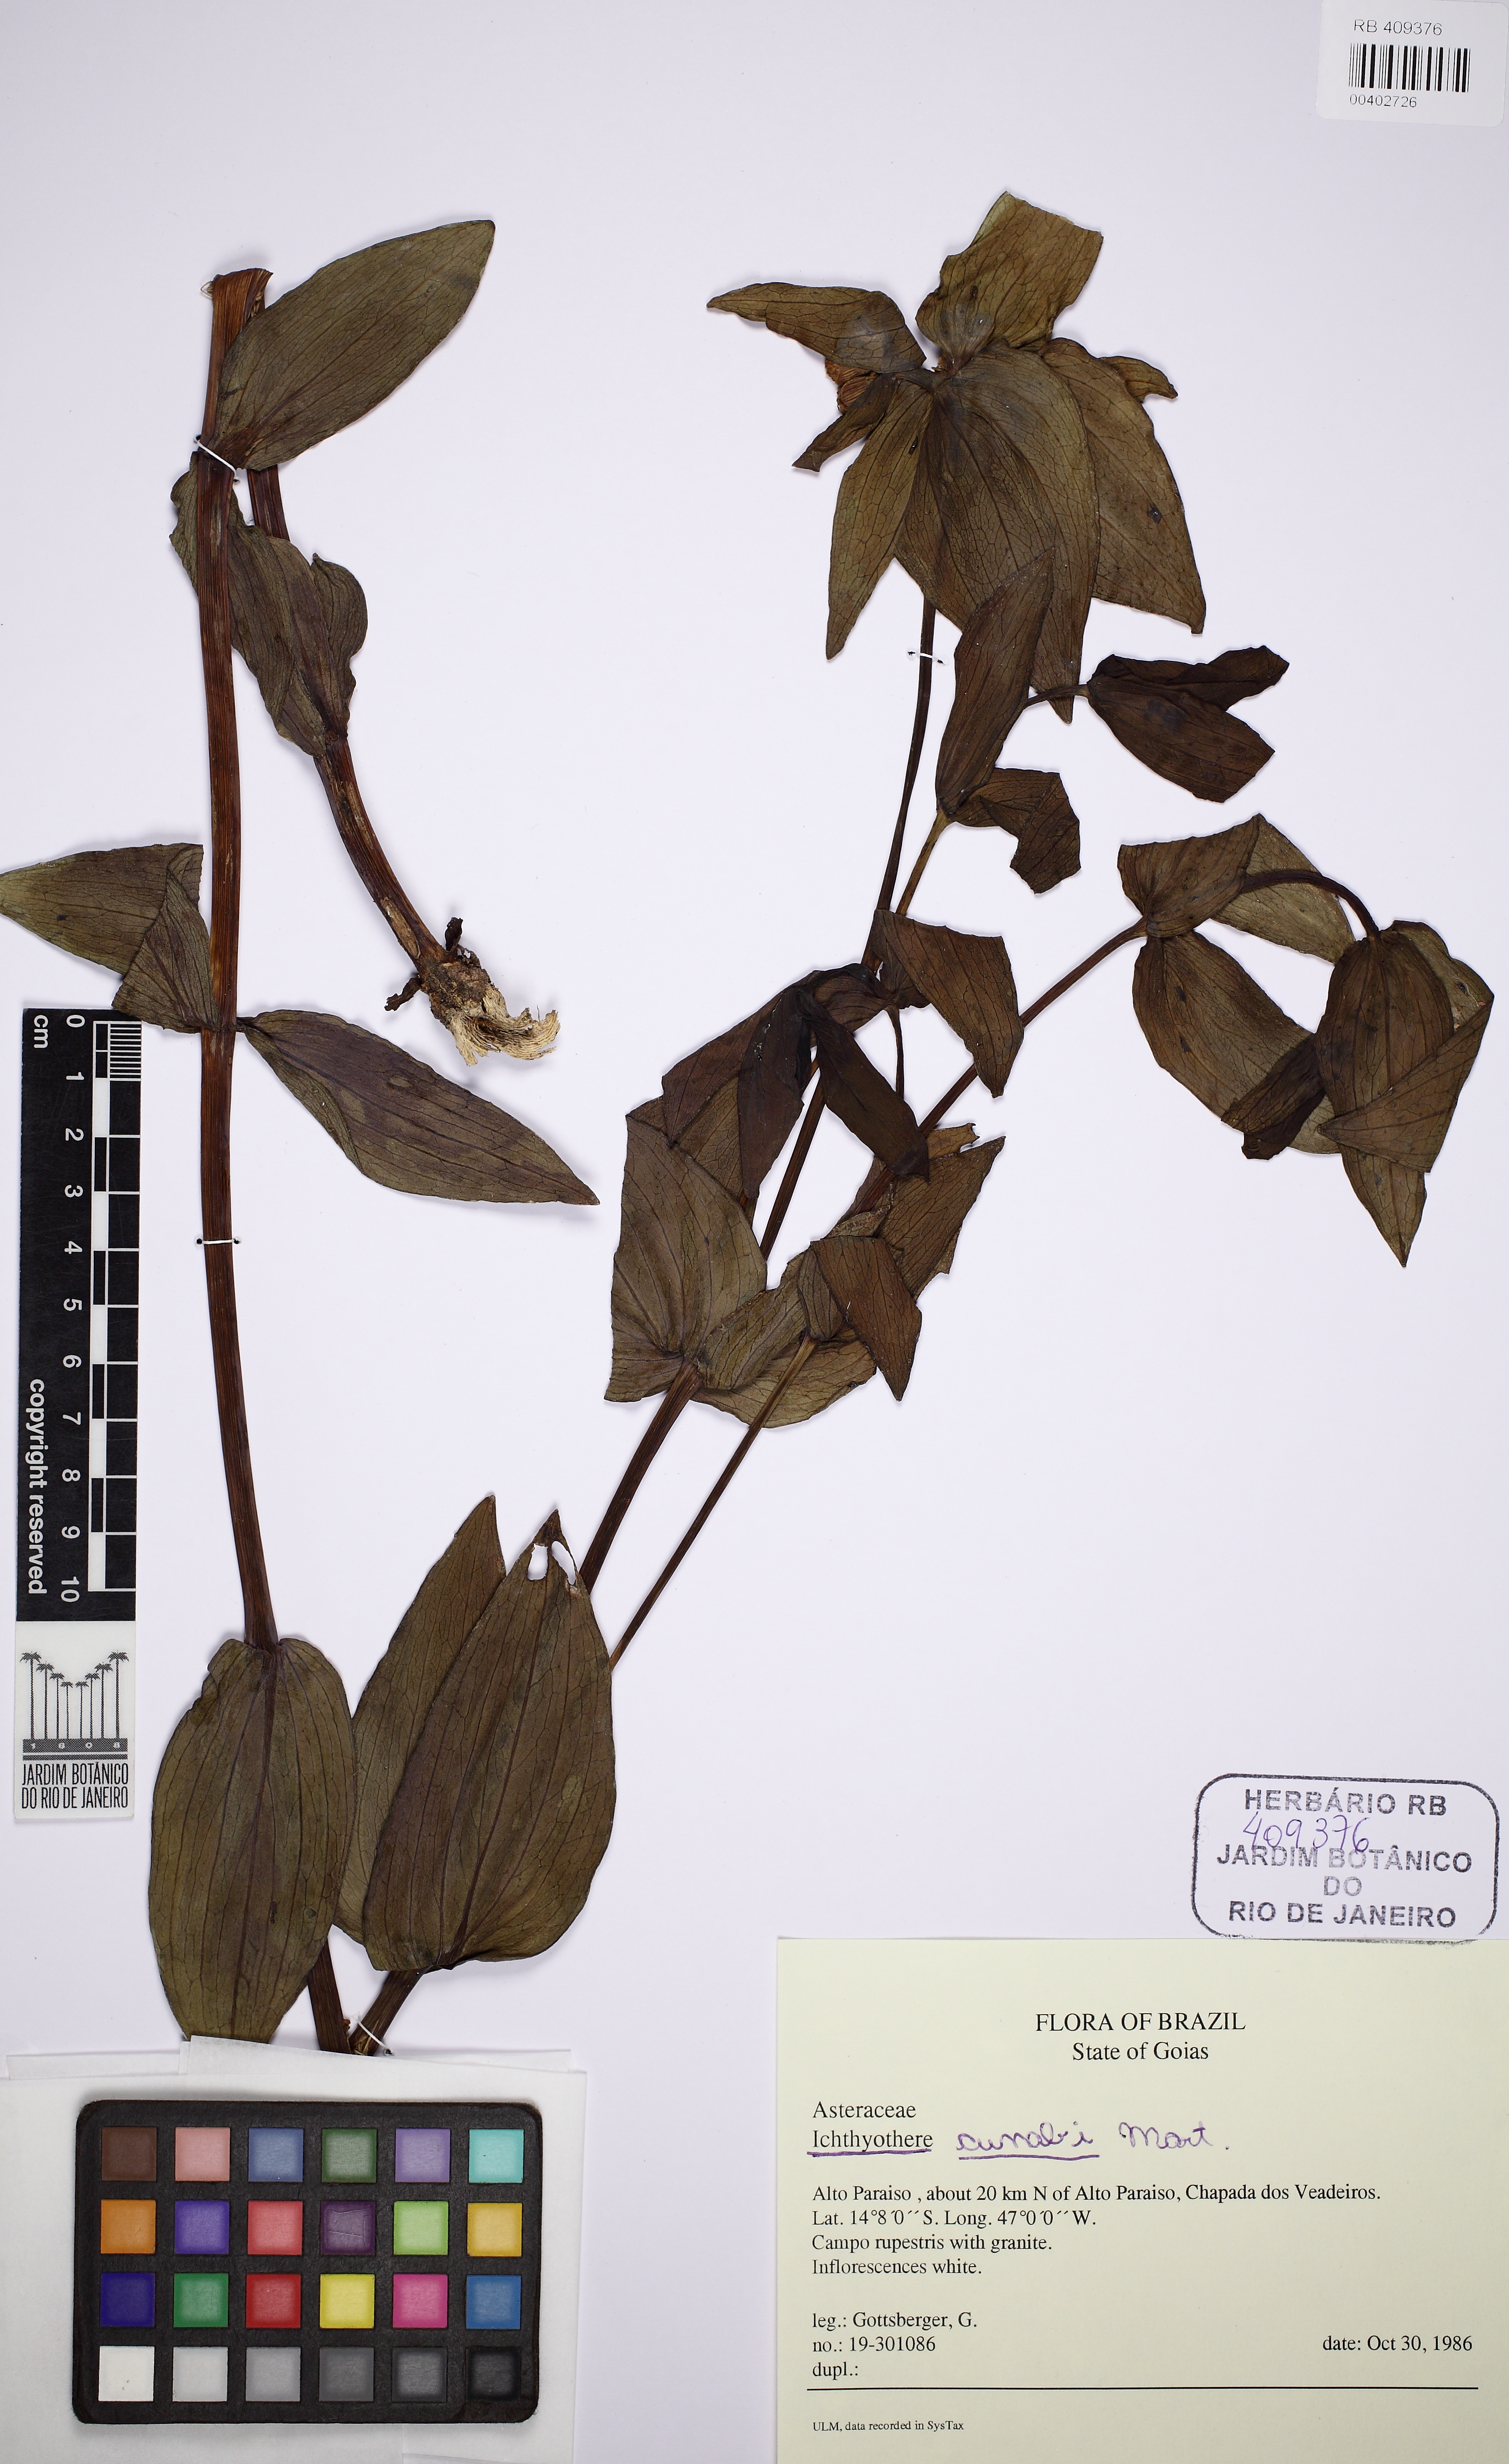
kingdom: Plantae
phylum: Tracheophyta
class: Magnoliopsida
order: Asterales
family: Asteraceae
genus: Ichthyothere
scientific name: Ichthyothere cunabi
